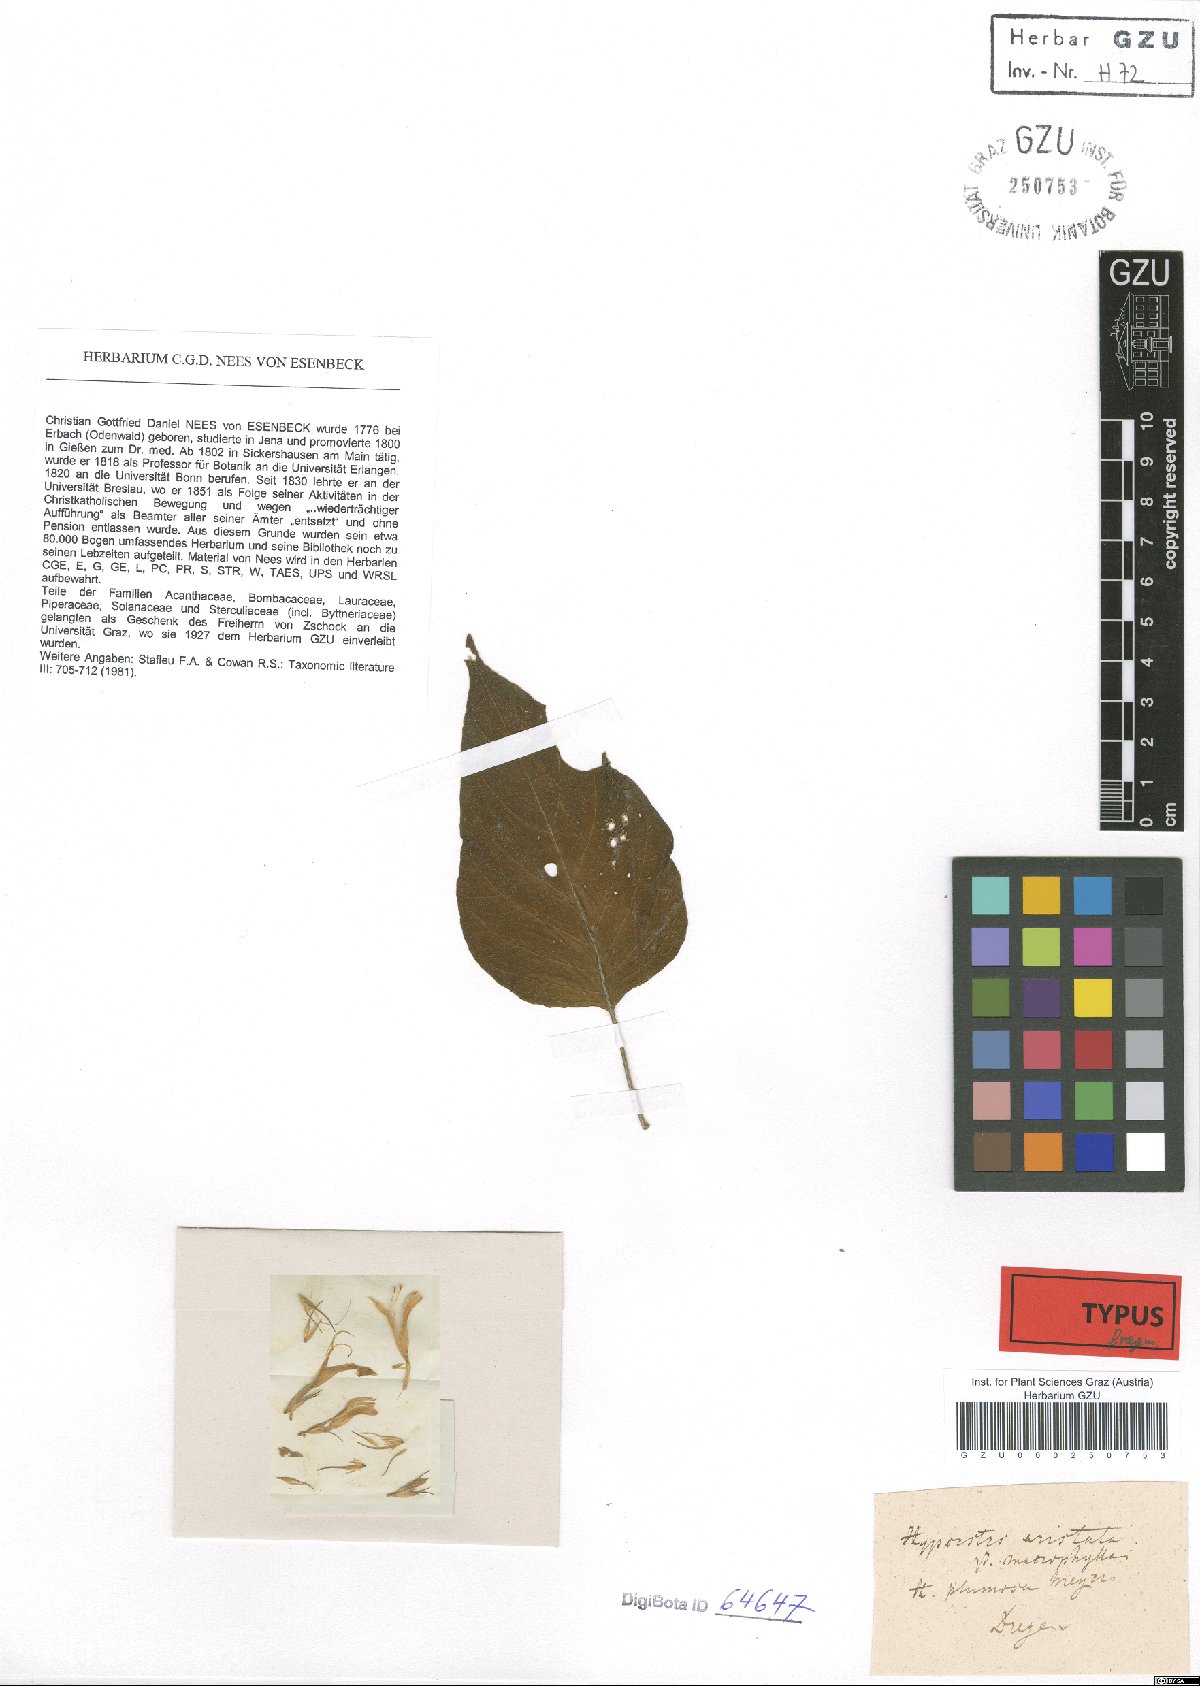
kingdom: Plantae
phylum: Tracheophyta
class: Magnoliopsida
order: Lamiales
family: Acanthaceae
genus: Hypoestes
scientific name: Hypoestes aristata
